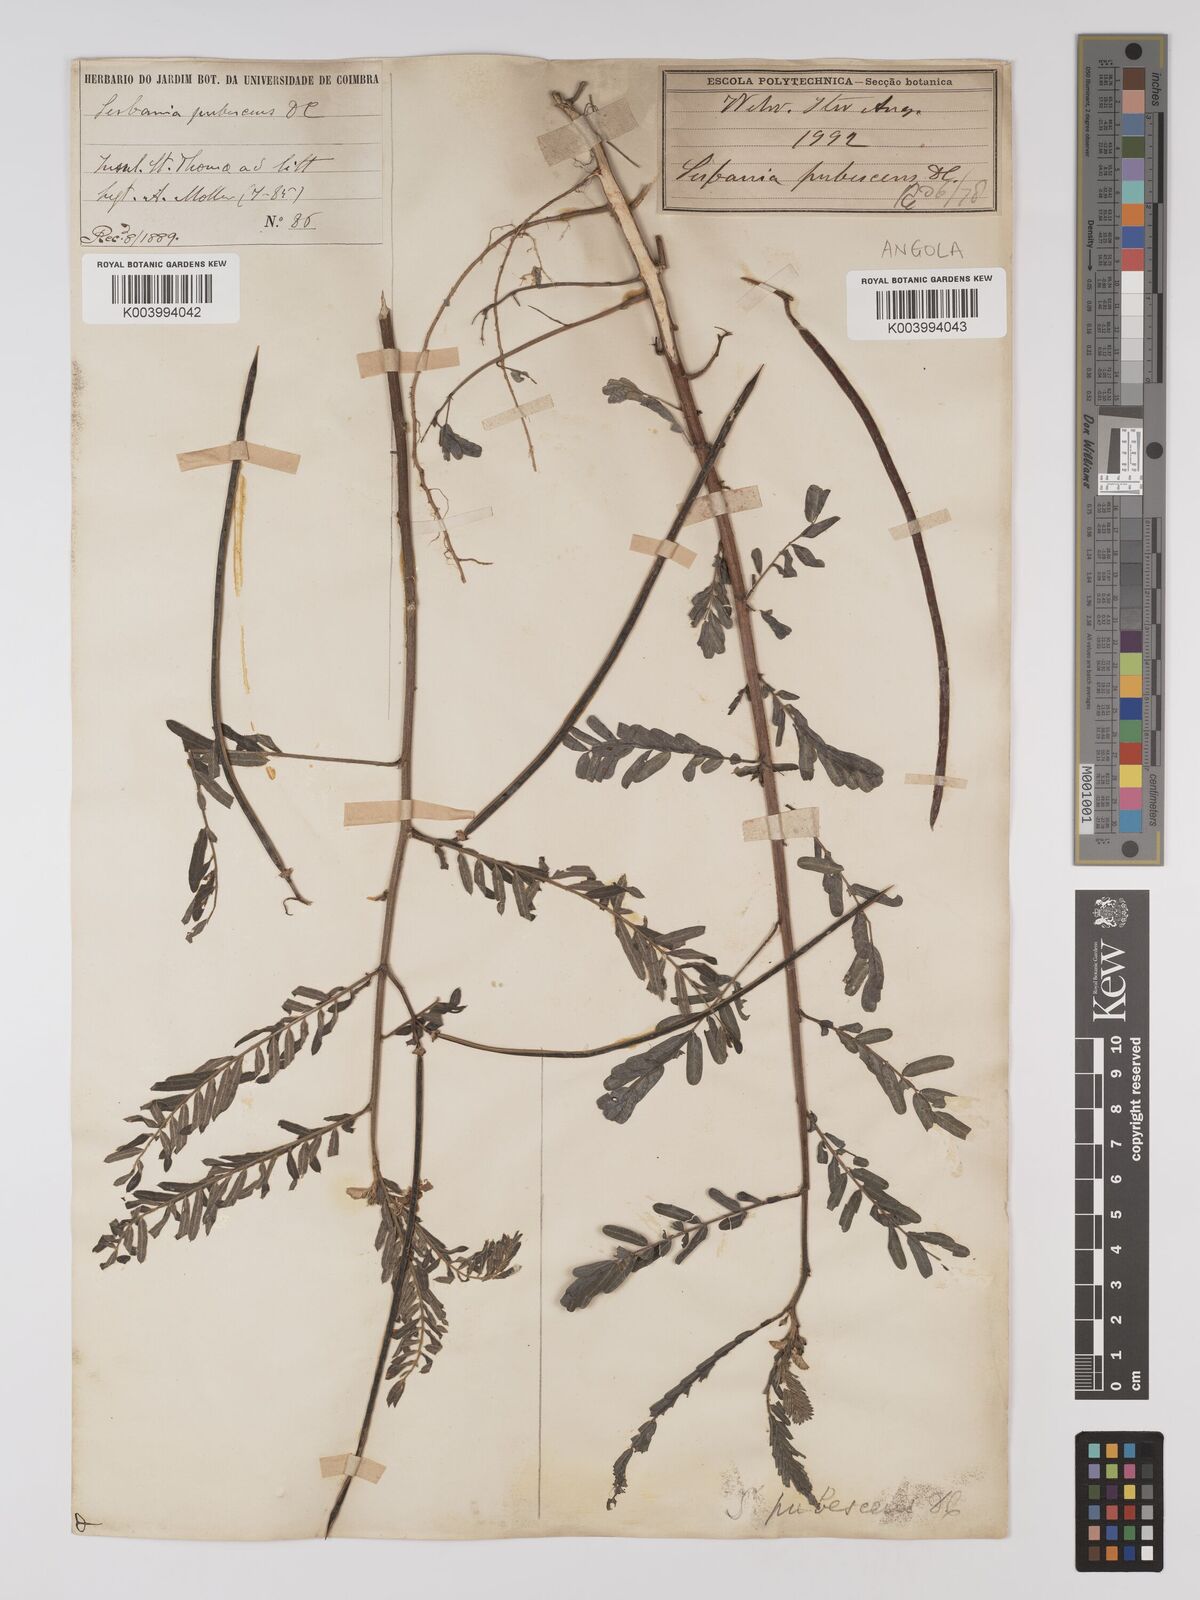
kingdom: Plantae
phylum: Tracheophyta
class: Magnoliopsida
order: Fabales
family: Fabaceae
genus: Sesbania
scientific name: Sesbania sericea
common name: Papagayo
